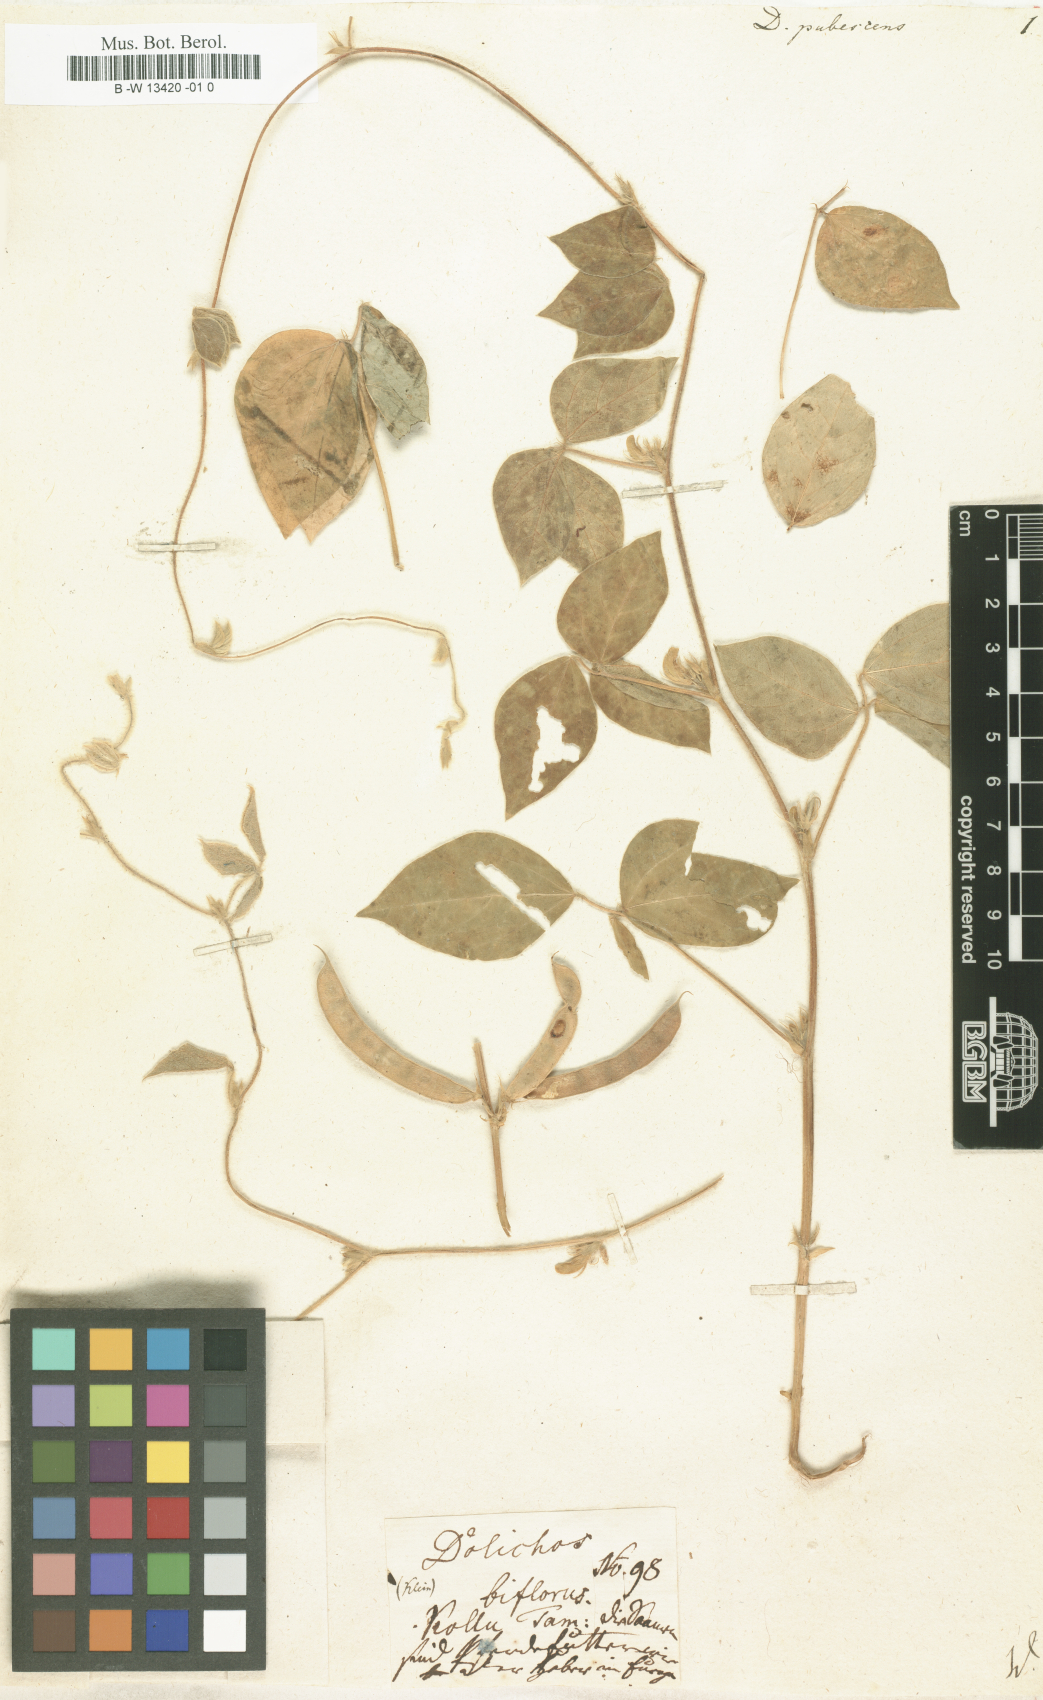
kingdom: Plantae
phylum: Tracheophyta
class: Magnoliopsida
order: Fabales
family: Fabaceae
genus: Macrotyloma
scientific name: Macrotyloma uniflorum
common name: Horse gram
